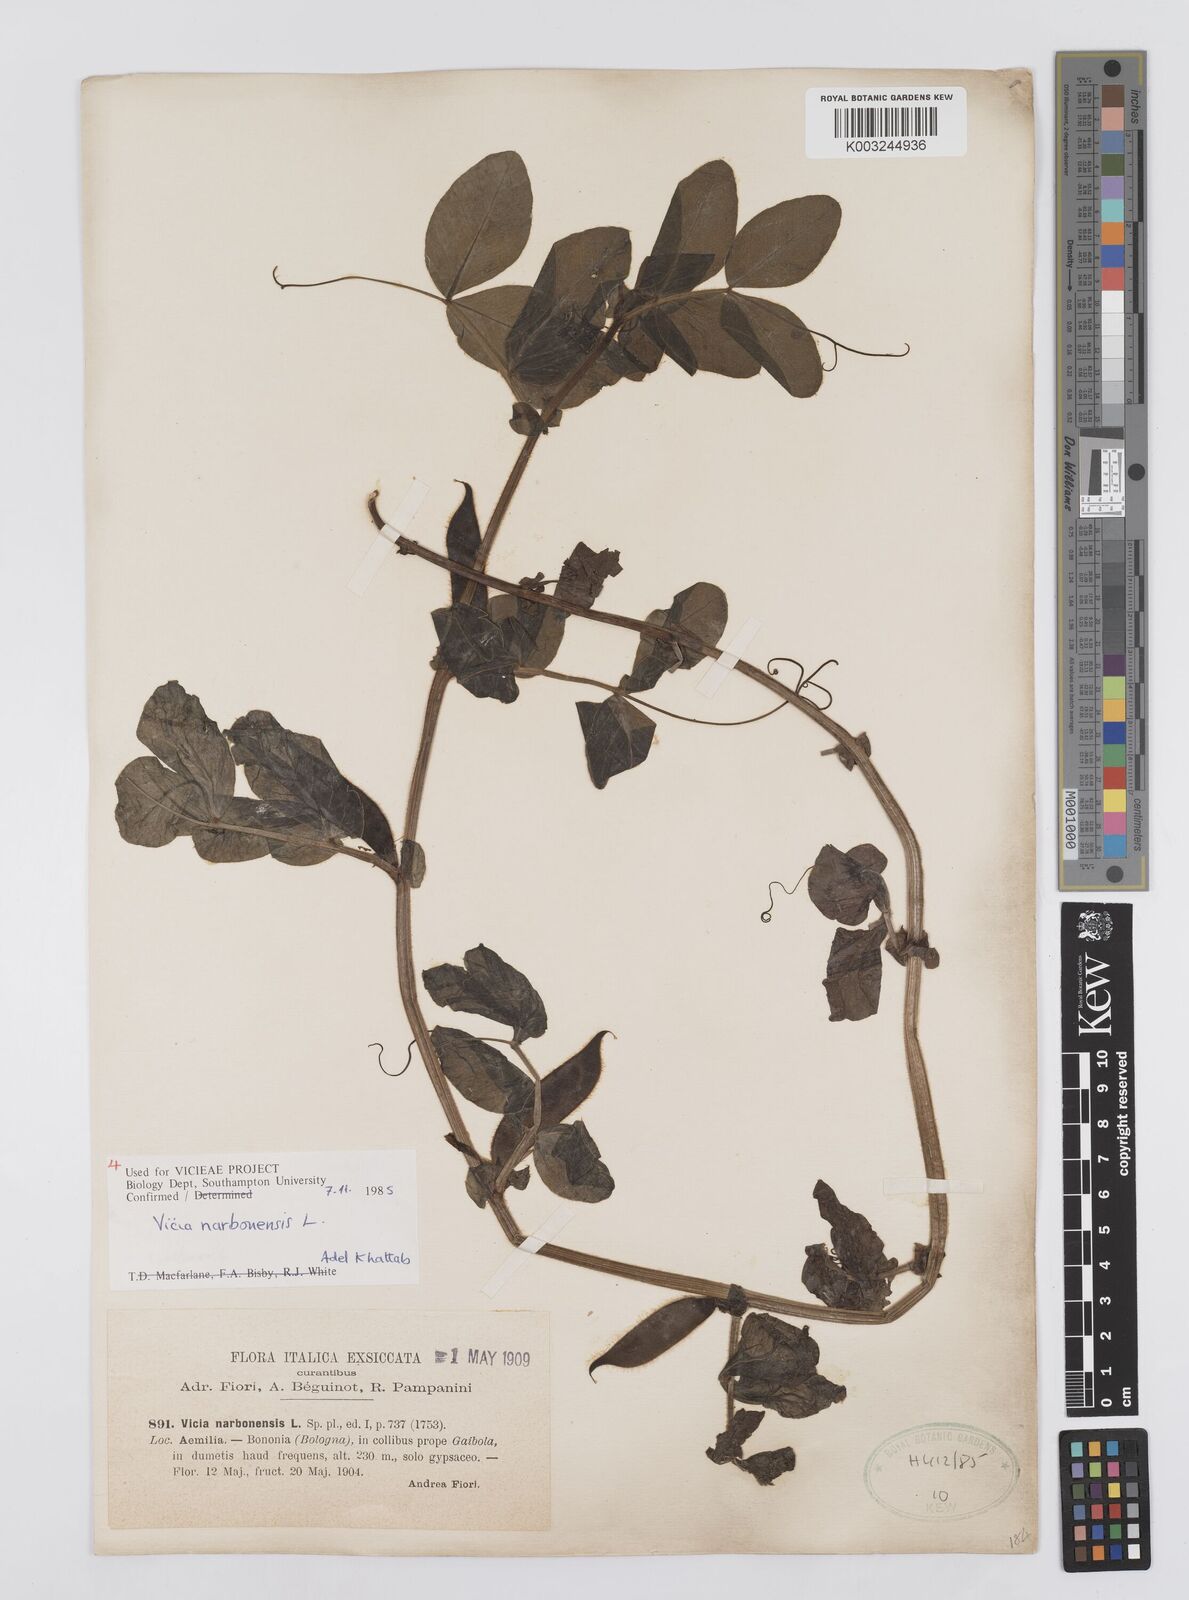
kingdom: Plantae
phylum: Tracheophyta
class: Magnoliopsida
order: Fabales
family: Fabaceae
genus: Vicia
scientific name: Vicia narbonensis
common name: Narbonne vetch
